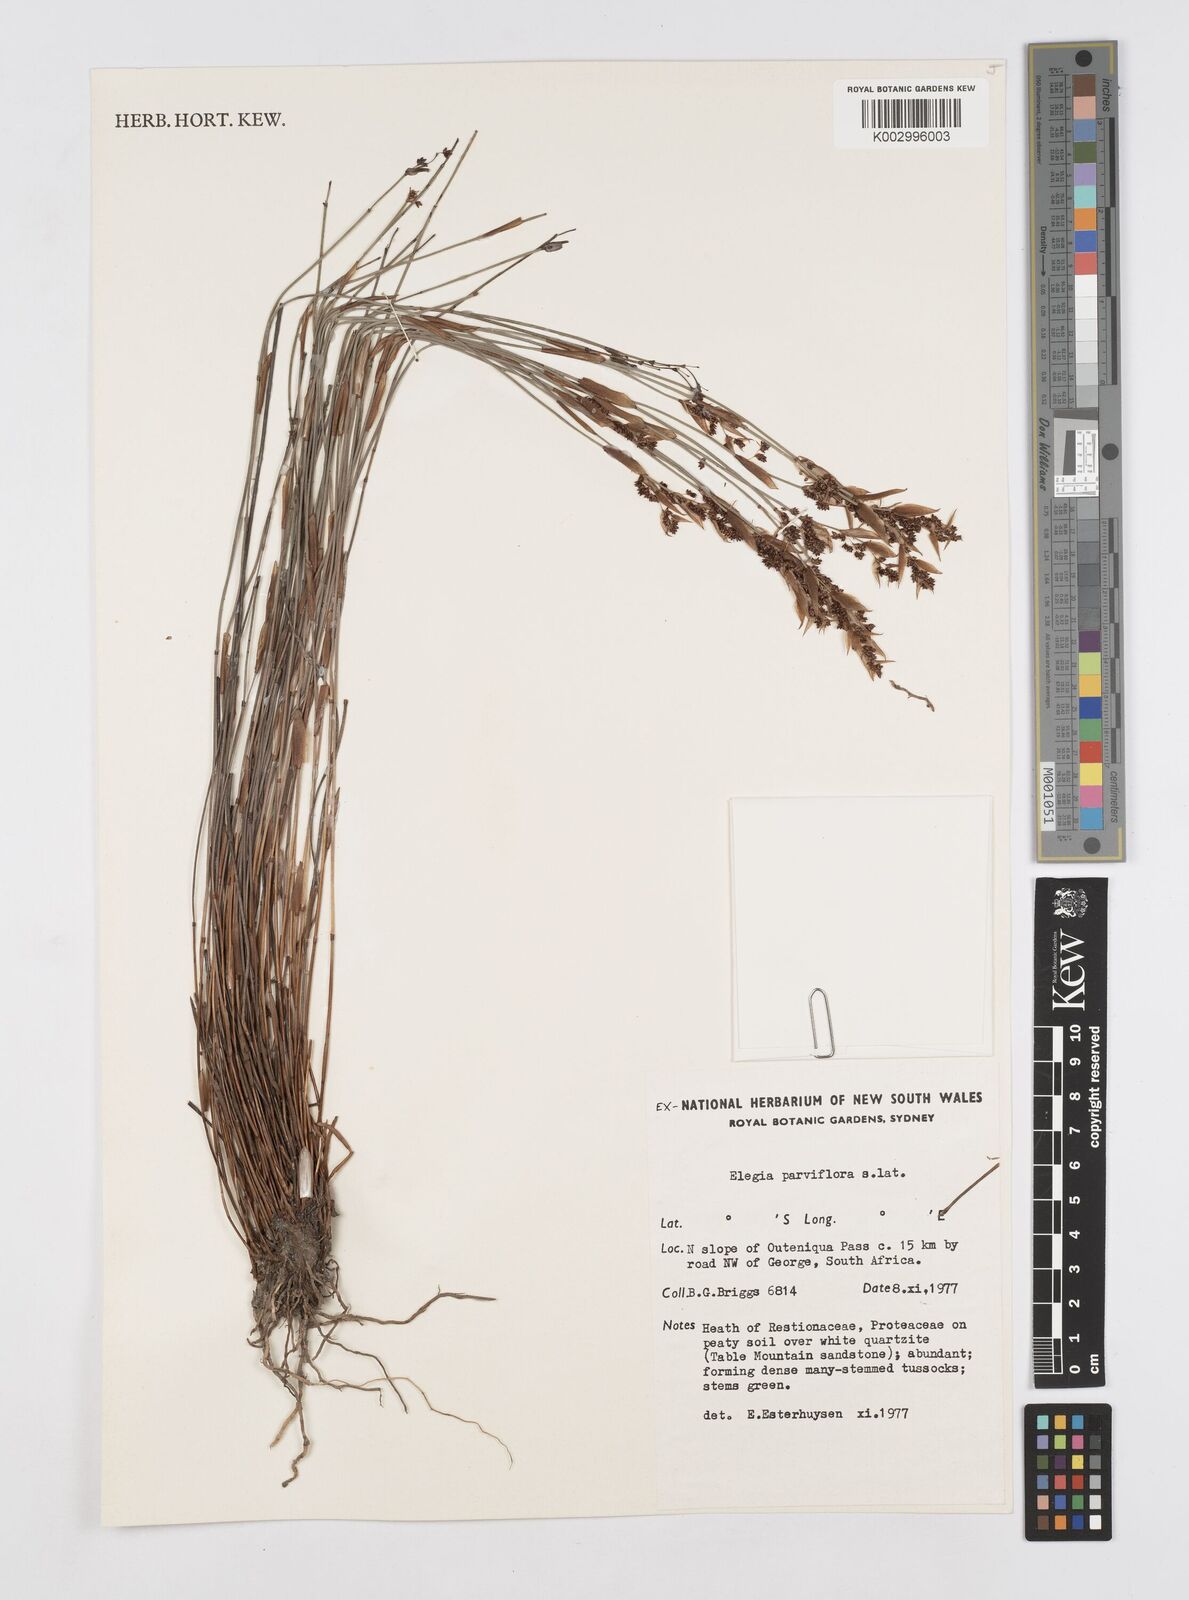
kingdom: Plantae
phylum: Tracheophyta
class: Liliopsida
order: Poales
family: Restionaceae
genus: Cannomois
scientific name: Cannomois parviflora
